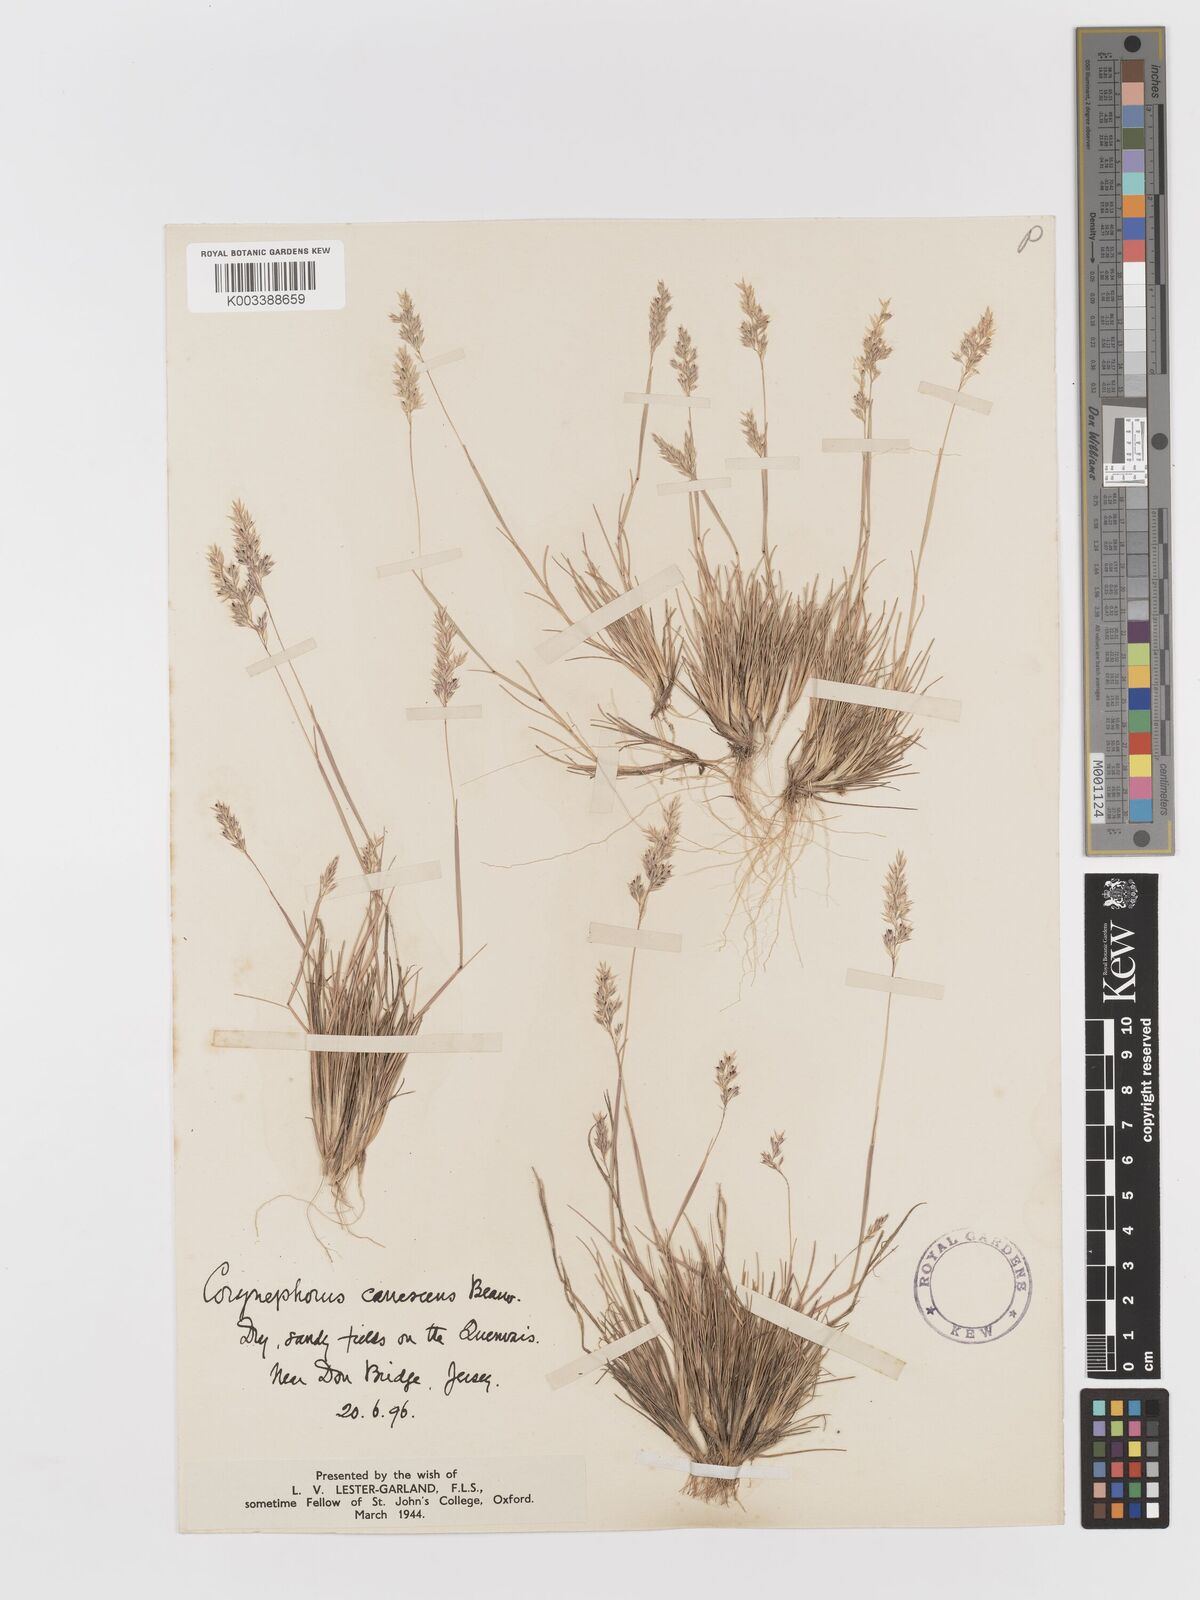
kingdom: Plantae
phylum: Tracheophyta
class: Liliopsida
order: Poales
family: Poaceae
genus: Corynephorus
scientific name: Corynephorus canescens
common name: Grey hair-grass
